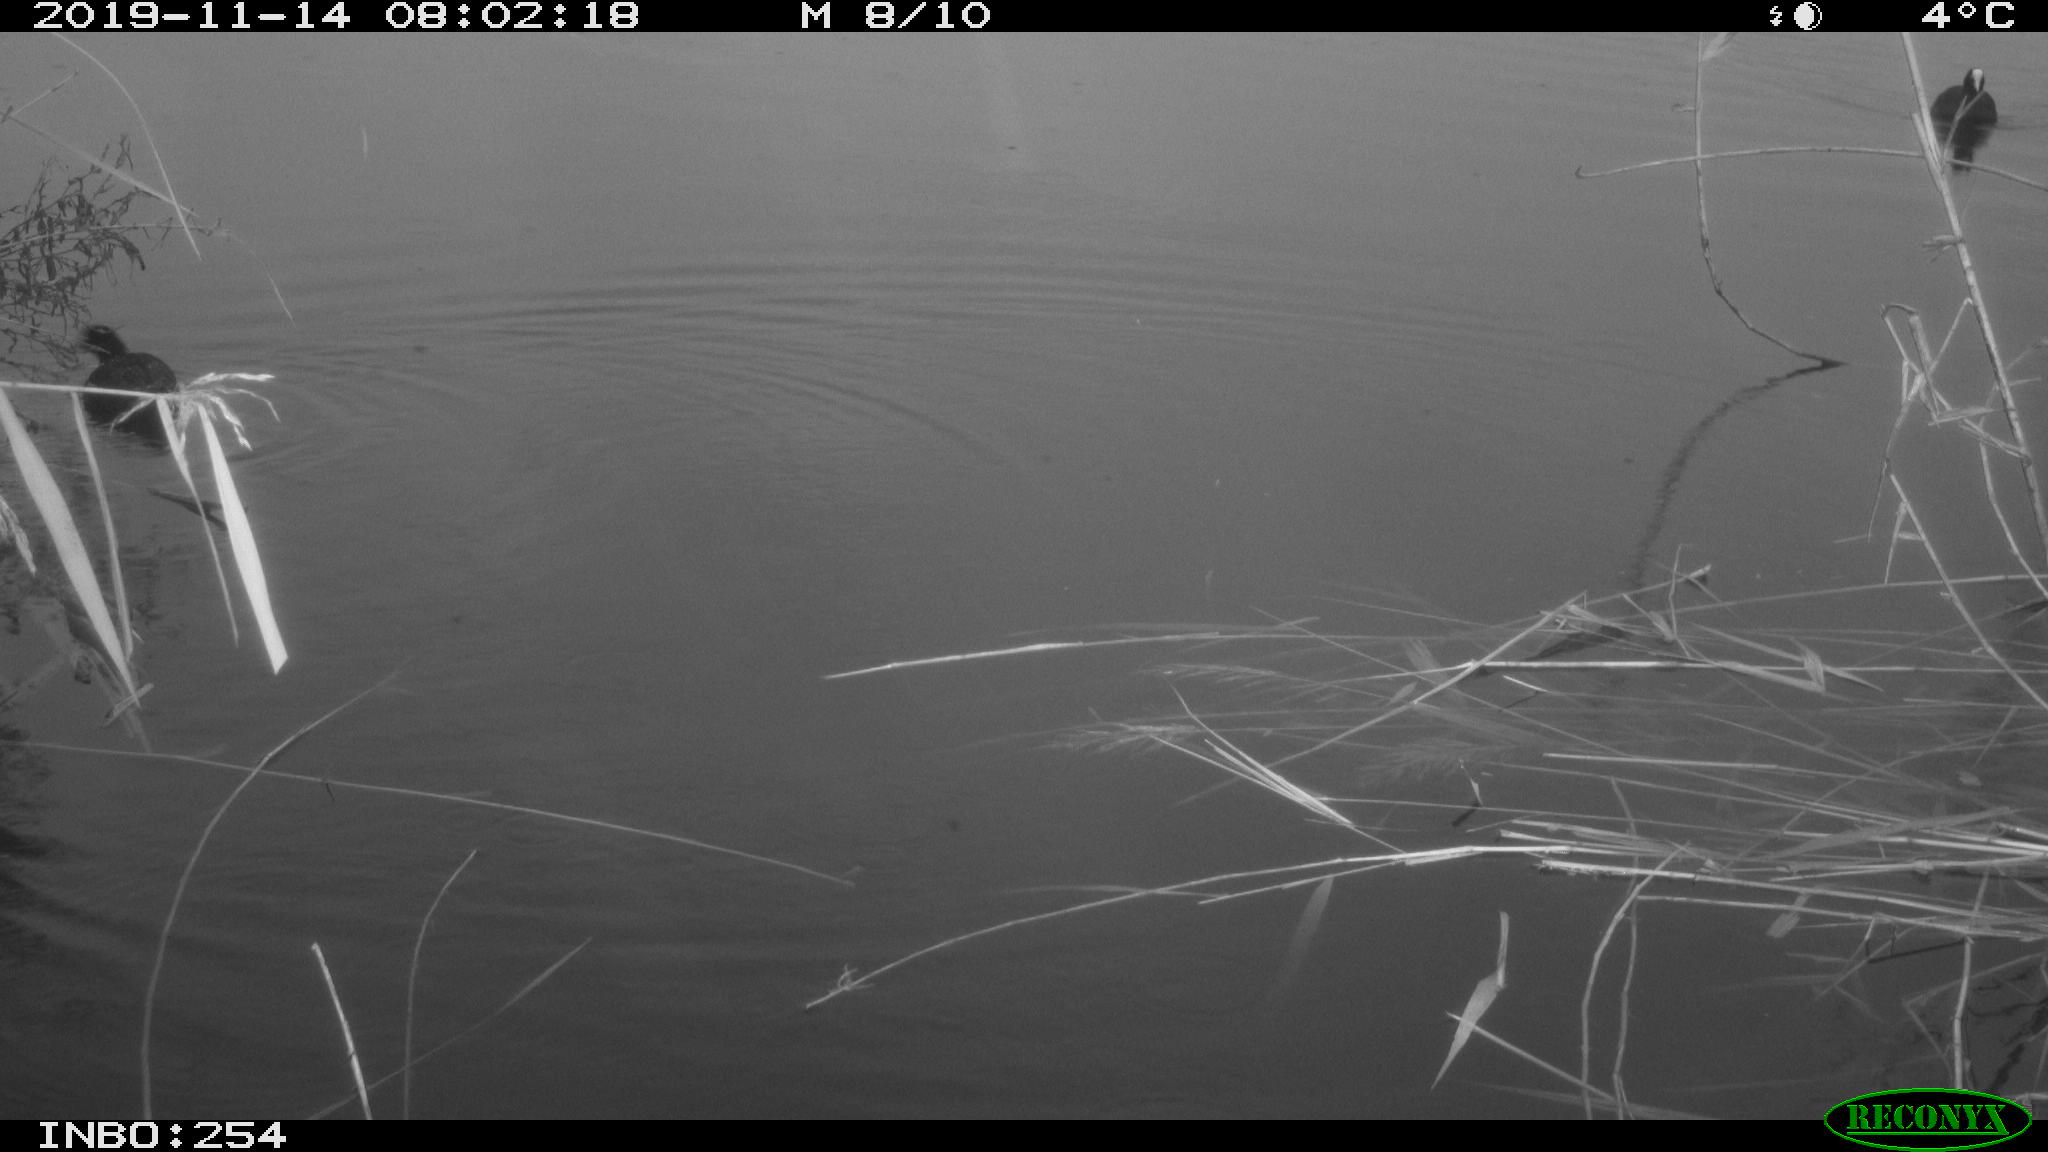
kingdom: Animalia
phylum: Chordata
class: Aves
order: Gruiformes
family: Rallidae
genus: Fulica
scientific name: Fulica atra
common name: Eurasian coot
